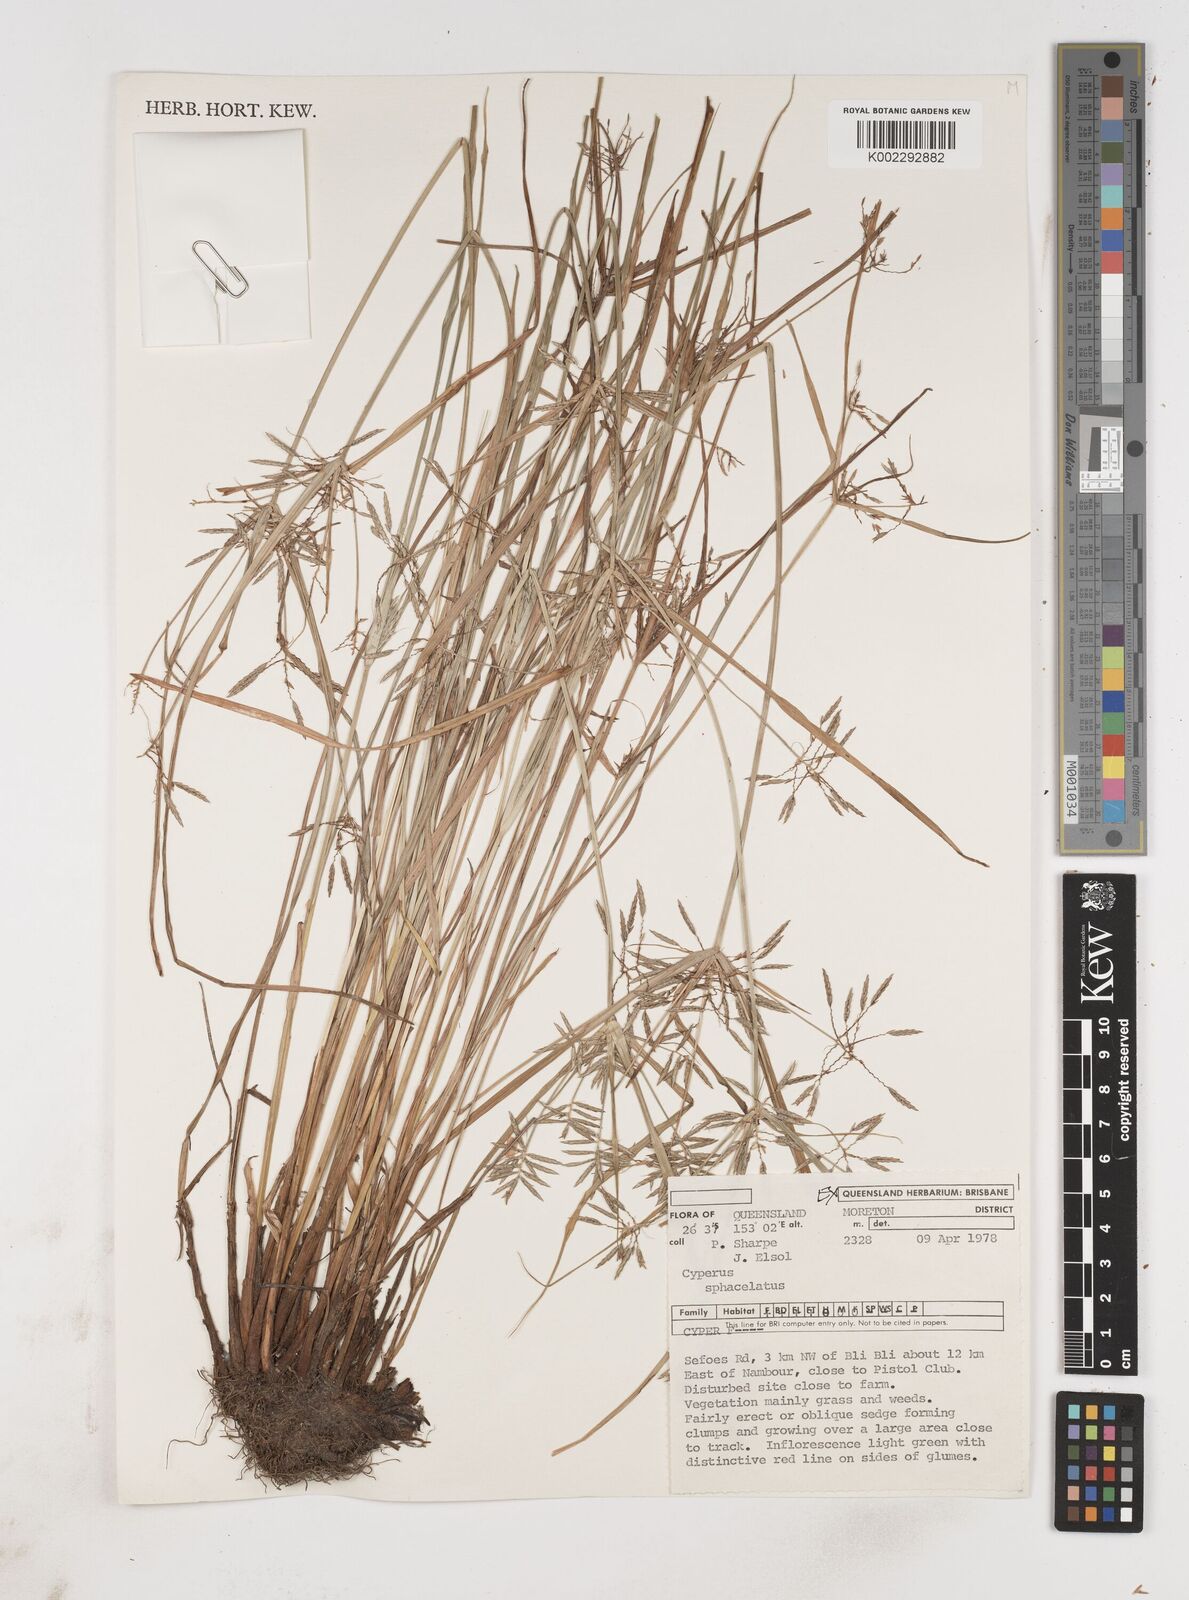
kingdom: Plantae
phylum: Tracheophyta
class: Liliopsida
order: Poales
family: Cyperaceae
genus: Cyperus
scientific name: Cyperus sphacelatus
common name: Roadside flatsedge
